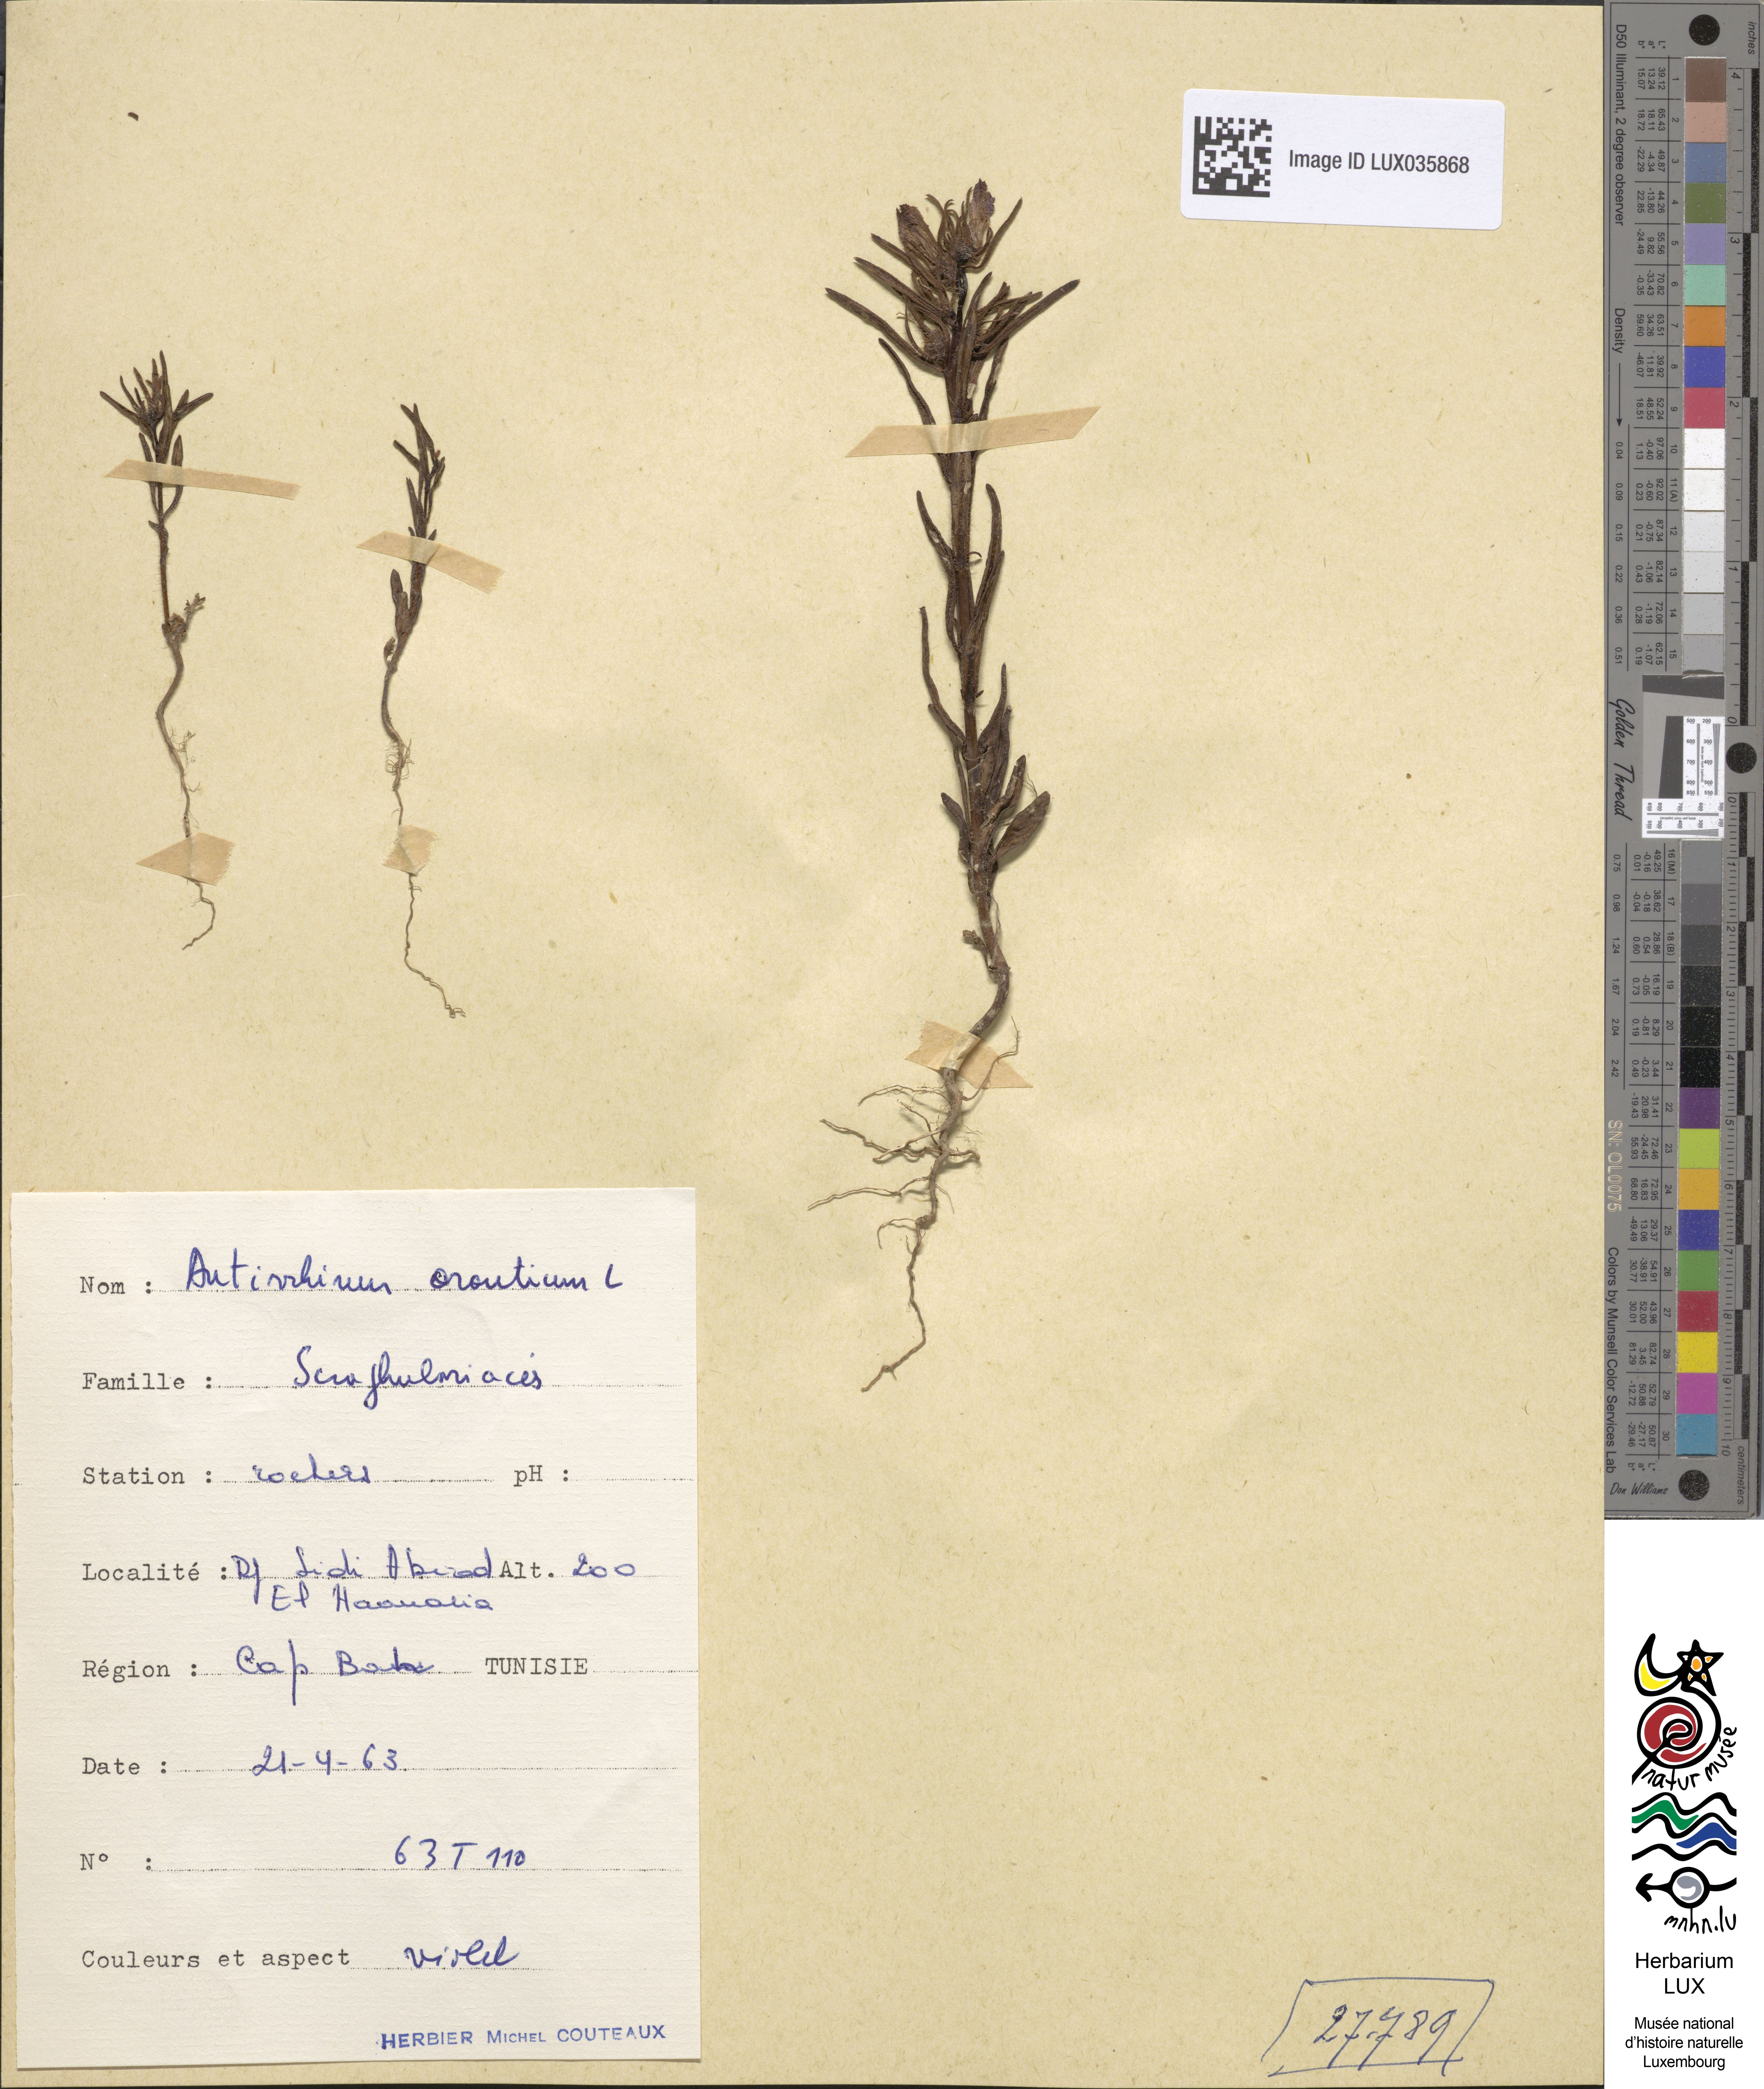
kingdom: Plantae
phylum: Tracheophyta
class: Magnoliopsida
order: Lamiales
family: Plantaginaceae
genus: Misopates
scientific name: Misopates orontium
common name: Weasel's-snout
